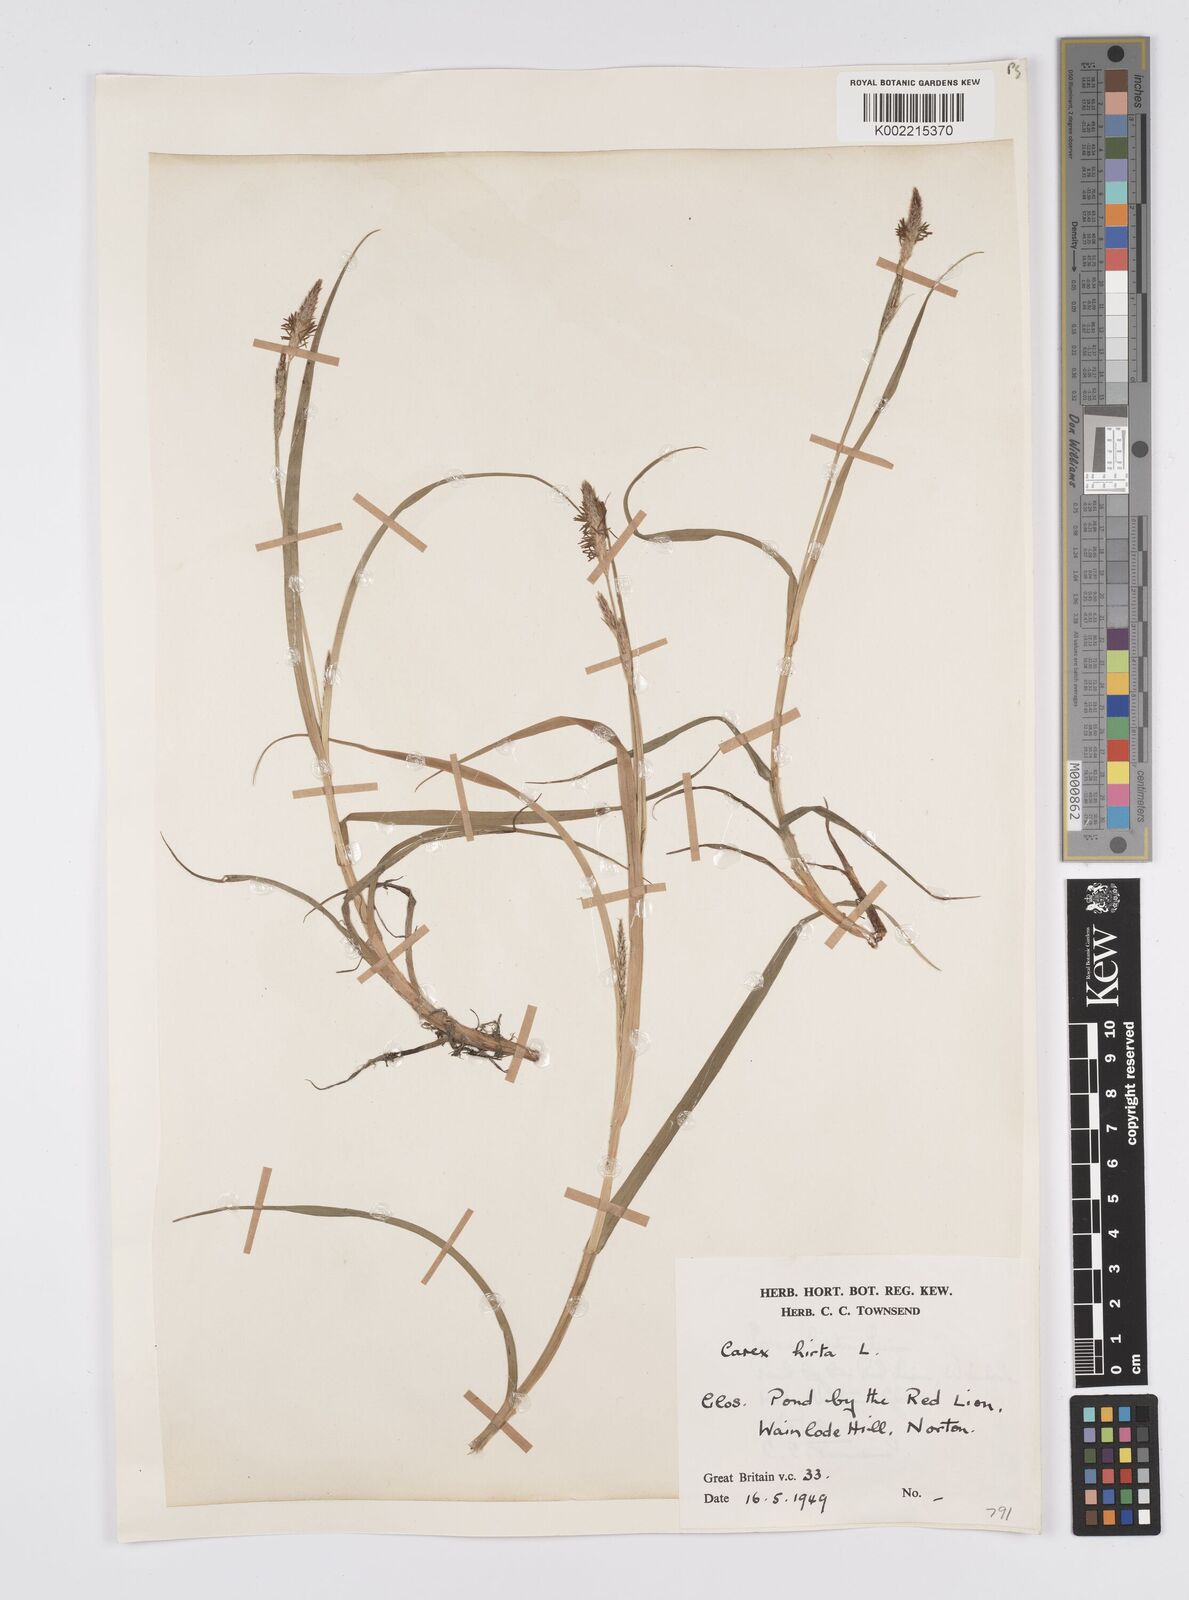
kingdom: Plantae
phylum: Tracheophyta
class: Liliopsida
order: Poales
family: Cyperaceae
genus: Carex
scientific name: Carex hirta
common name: Hairy sedge
